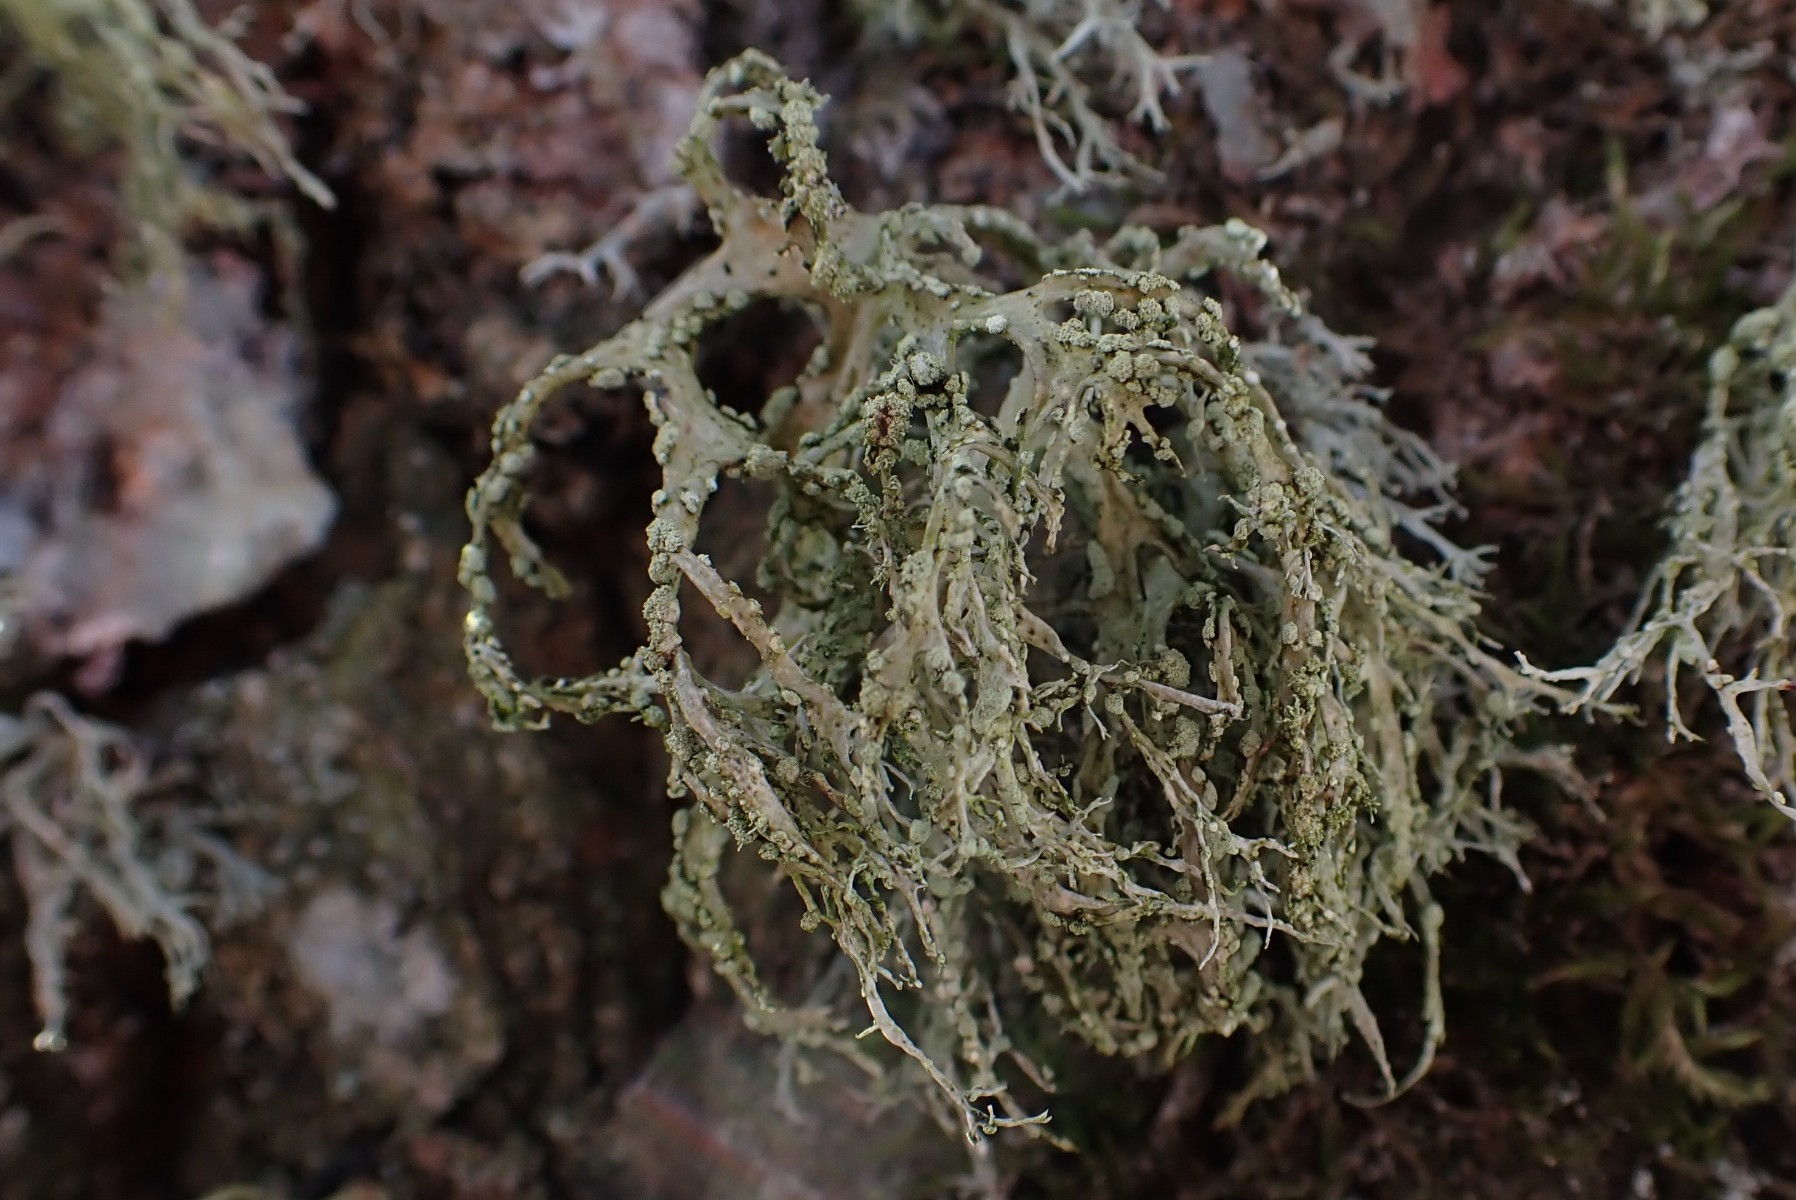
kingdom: Fungi
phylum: Ascomycota
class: Lecanoromycetes
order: Lecanorales
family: Ramalinaceae
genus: Ramalina
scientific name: Ramalina farinacea
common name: melet grenlav
